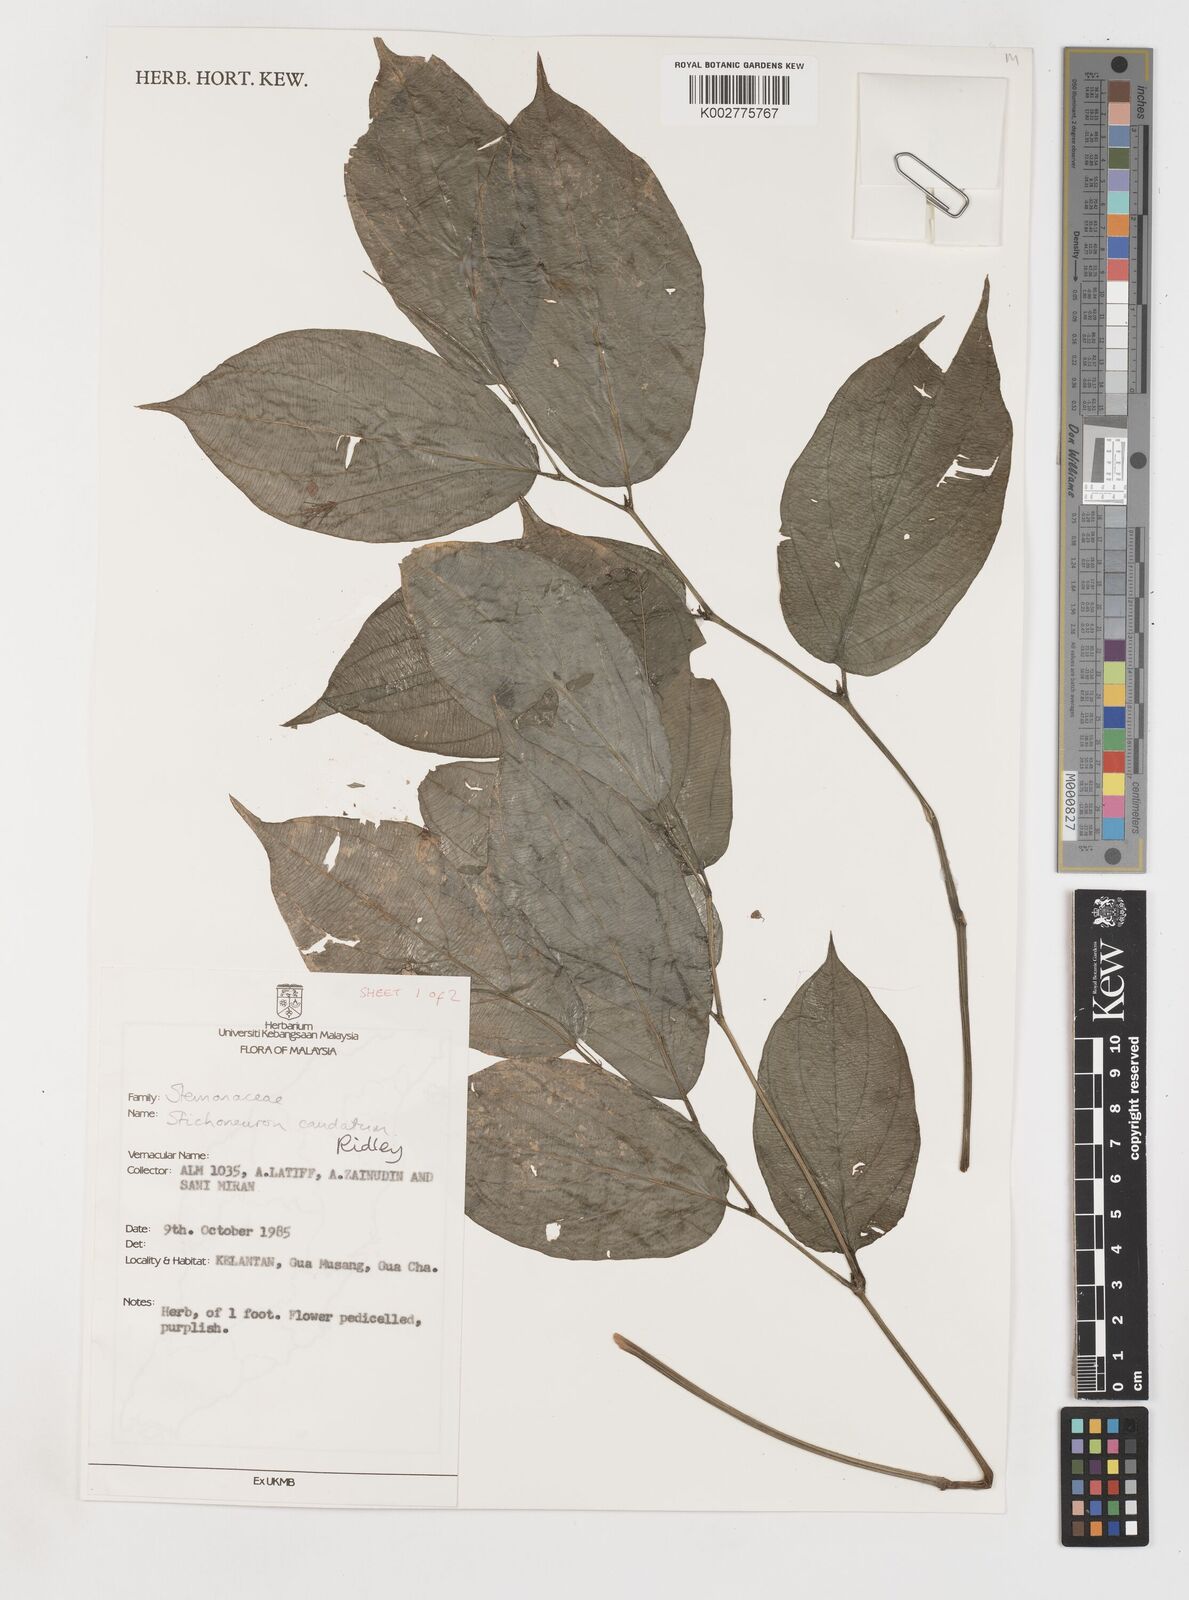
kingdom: Plantae
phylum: Tracheophyta
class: Liliopsida
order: Pandanales
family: Stemonaceae
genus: Stichoneuron
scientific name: Stichoneuron caudatum
